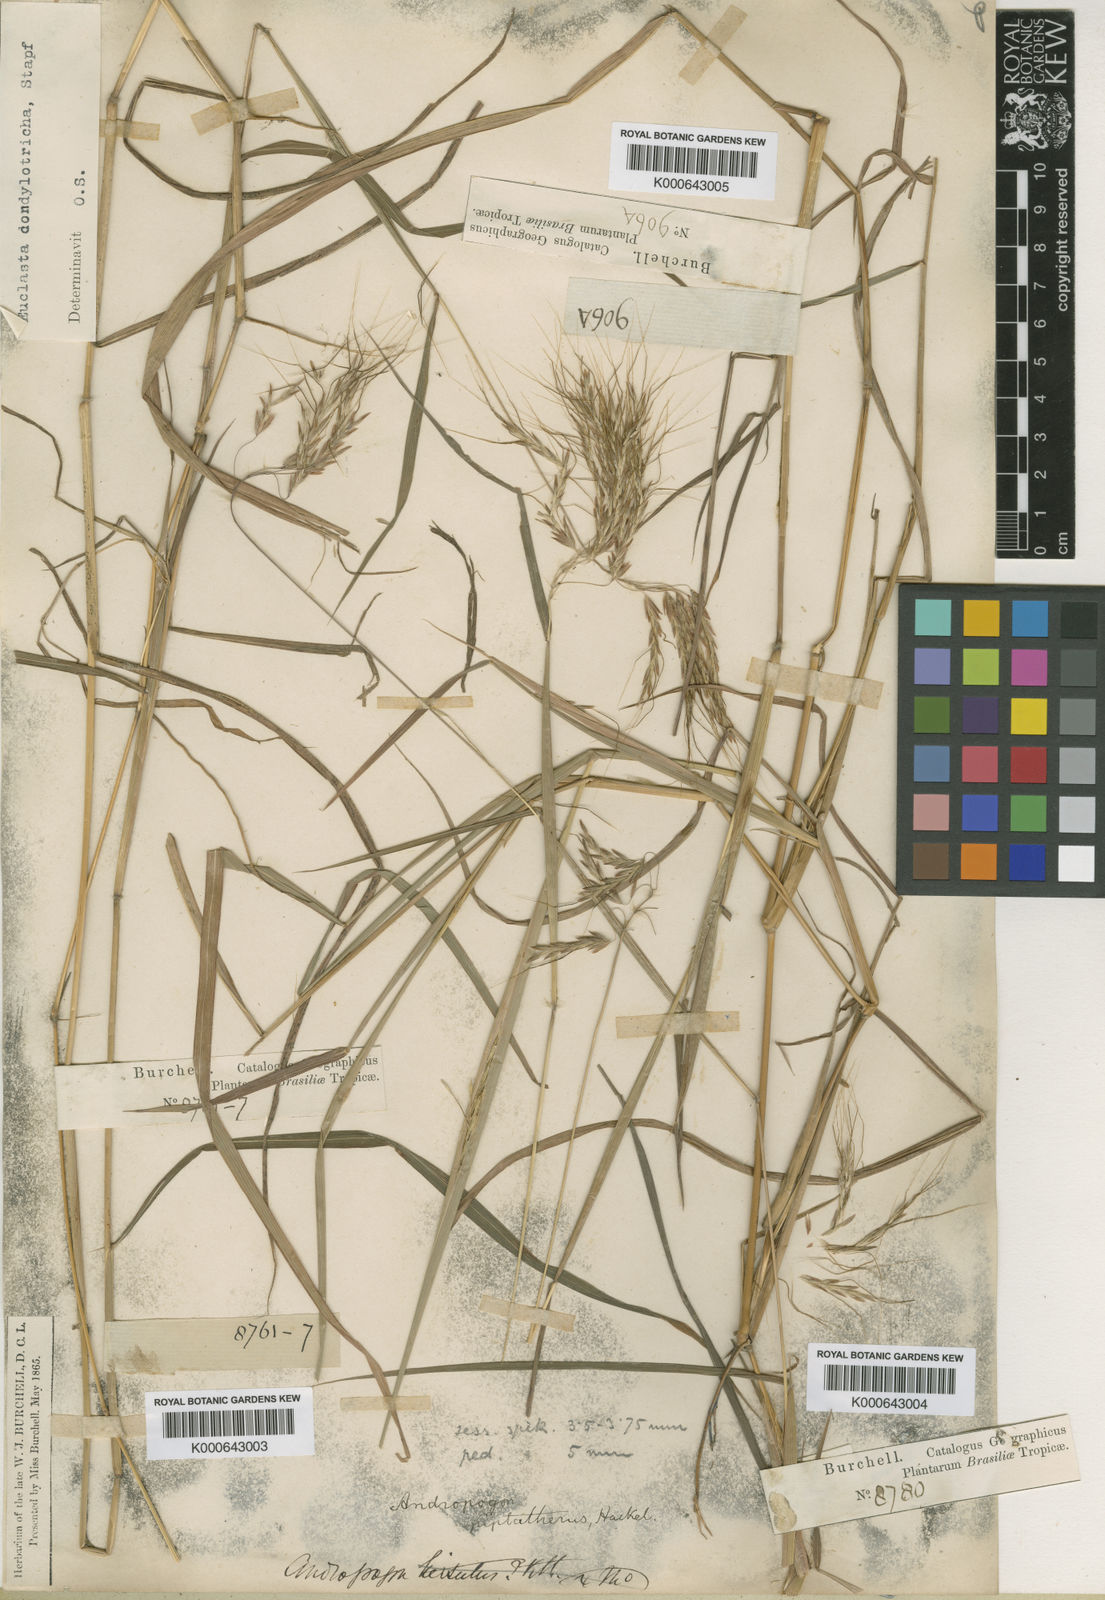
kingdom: Plantae
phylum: Tracheophyta
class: Liliopsida
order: Poales
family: Poaceae
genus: Euclasta
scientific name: Euclasta condylotricha
